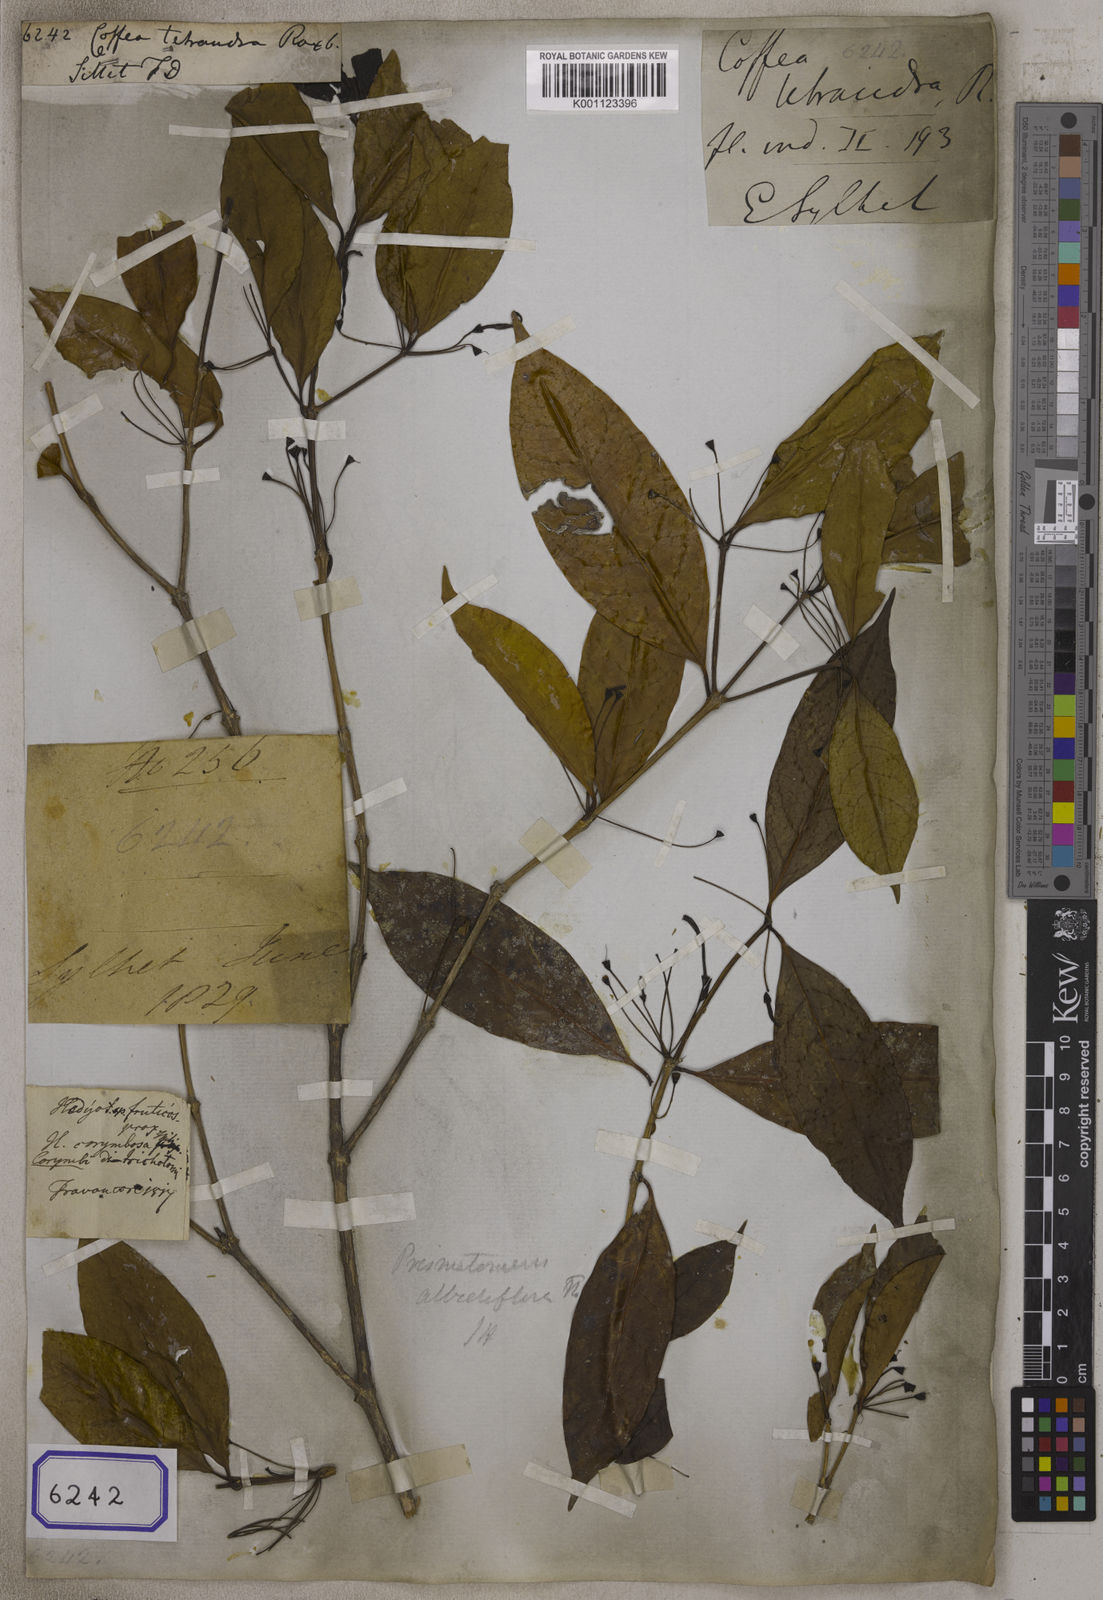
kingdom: Plantae
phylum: Tracheophyta
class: Magnoliopsida
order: Gentianales
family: Rubiaceae
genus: Prismatomeris
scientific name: Prismatomeris tetrandra
